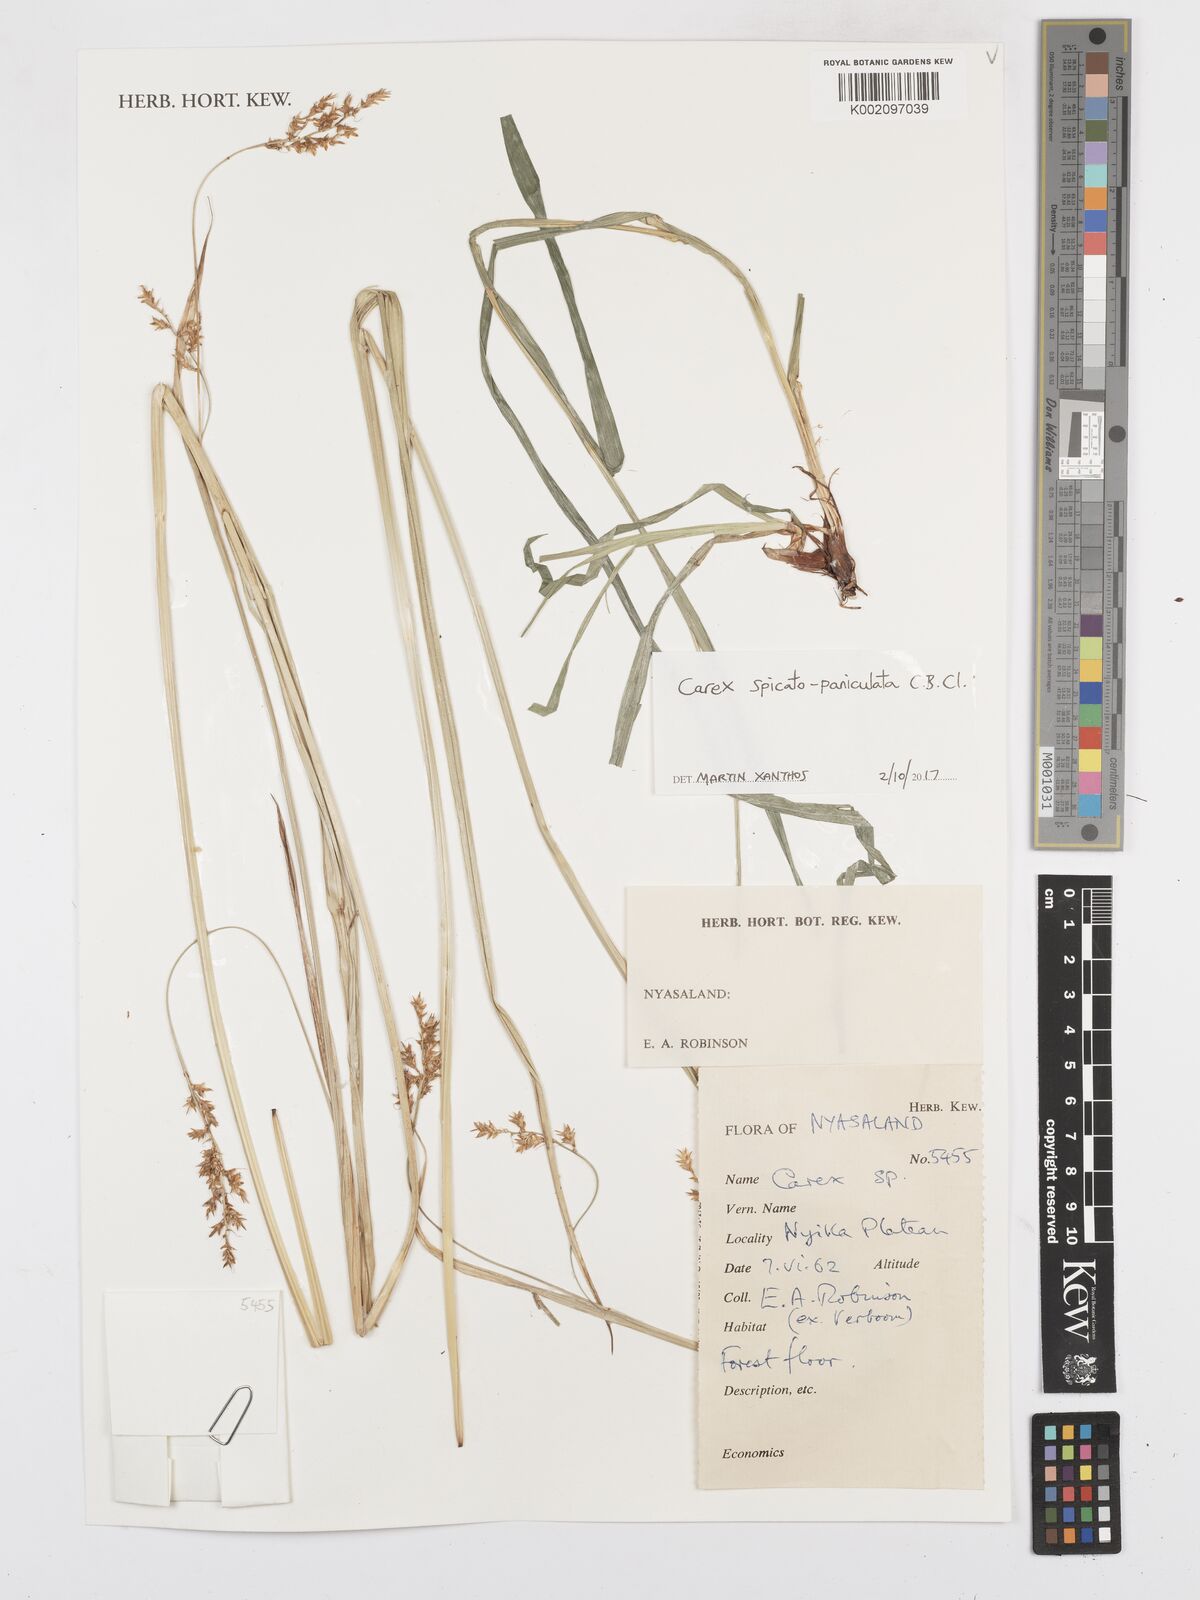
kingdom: Plantae
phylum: Tracheophyta
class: Liliopsida
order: Poales
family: Cyperaceae
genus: Carex
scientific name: Carex spicatopaniculata
